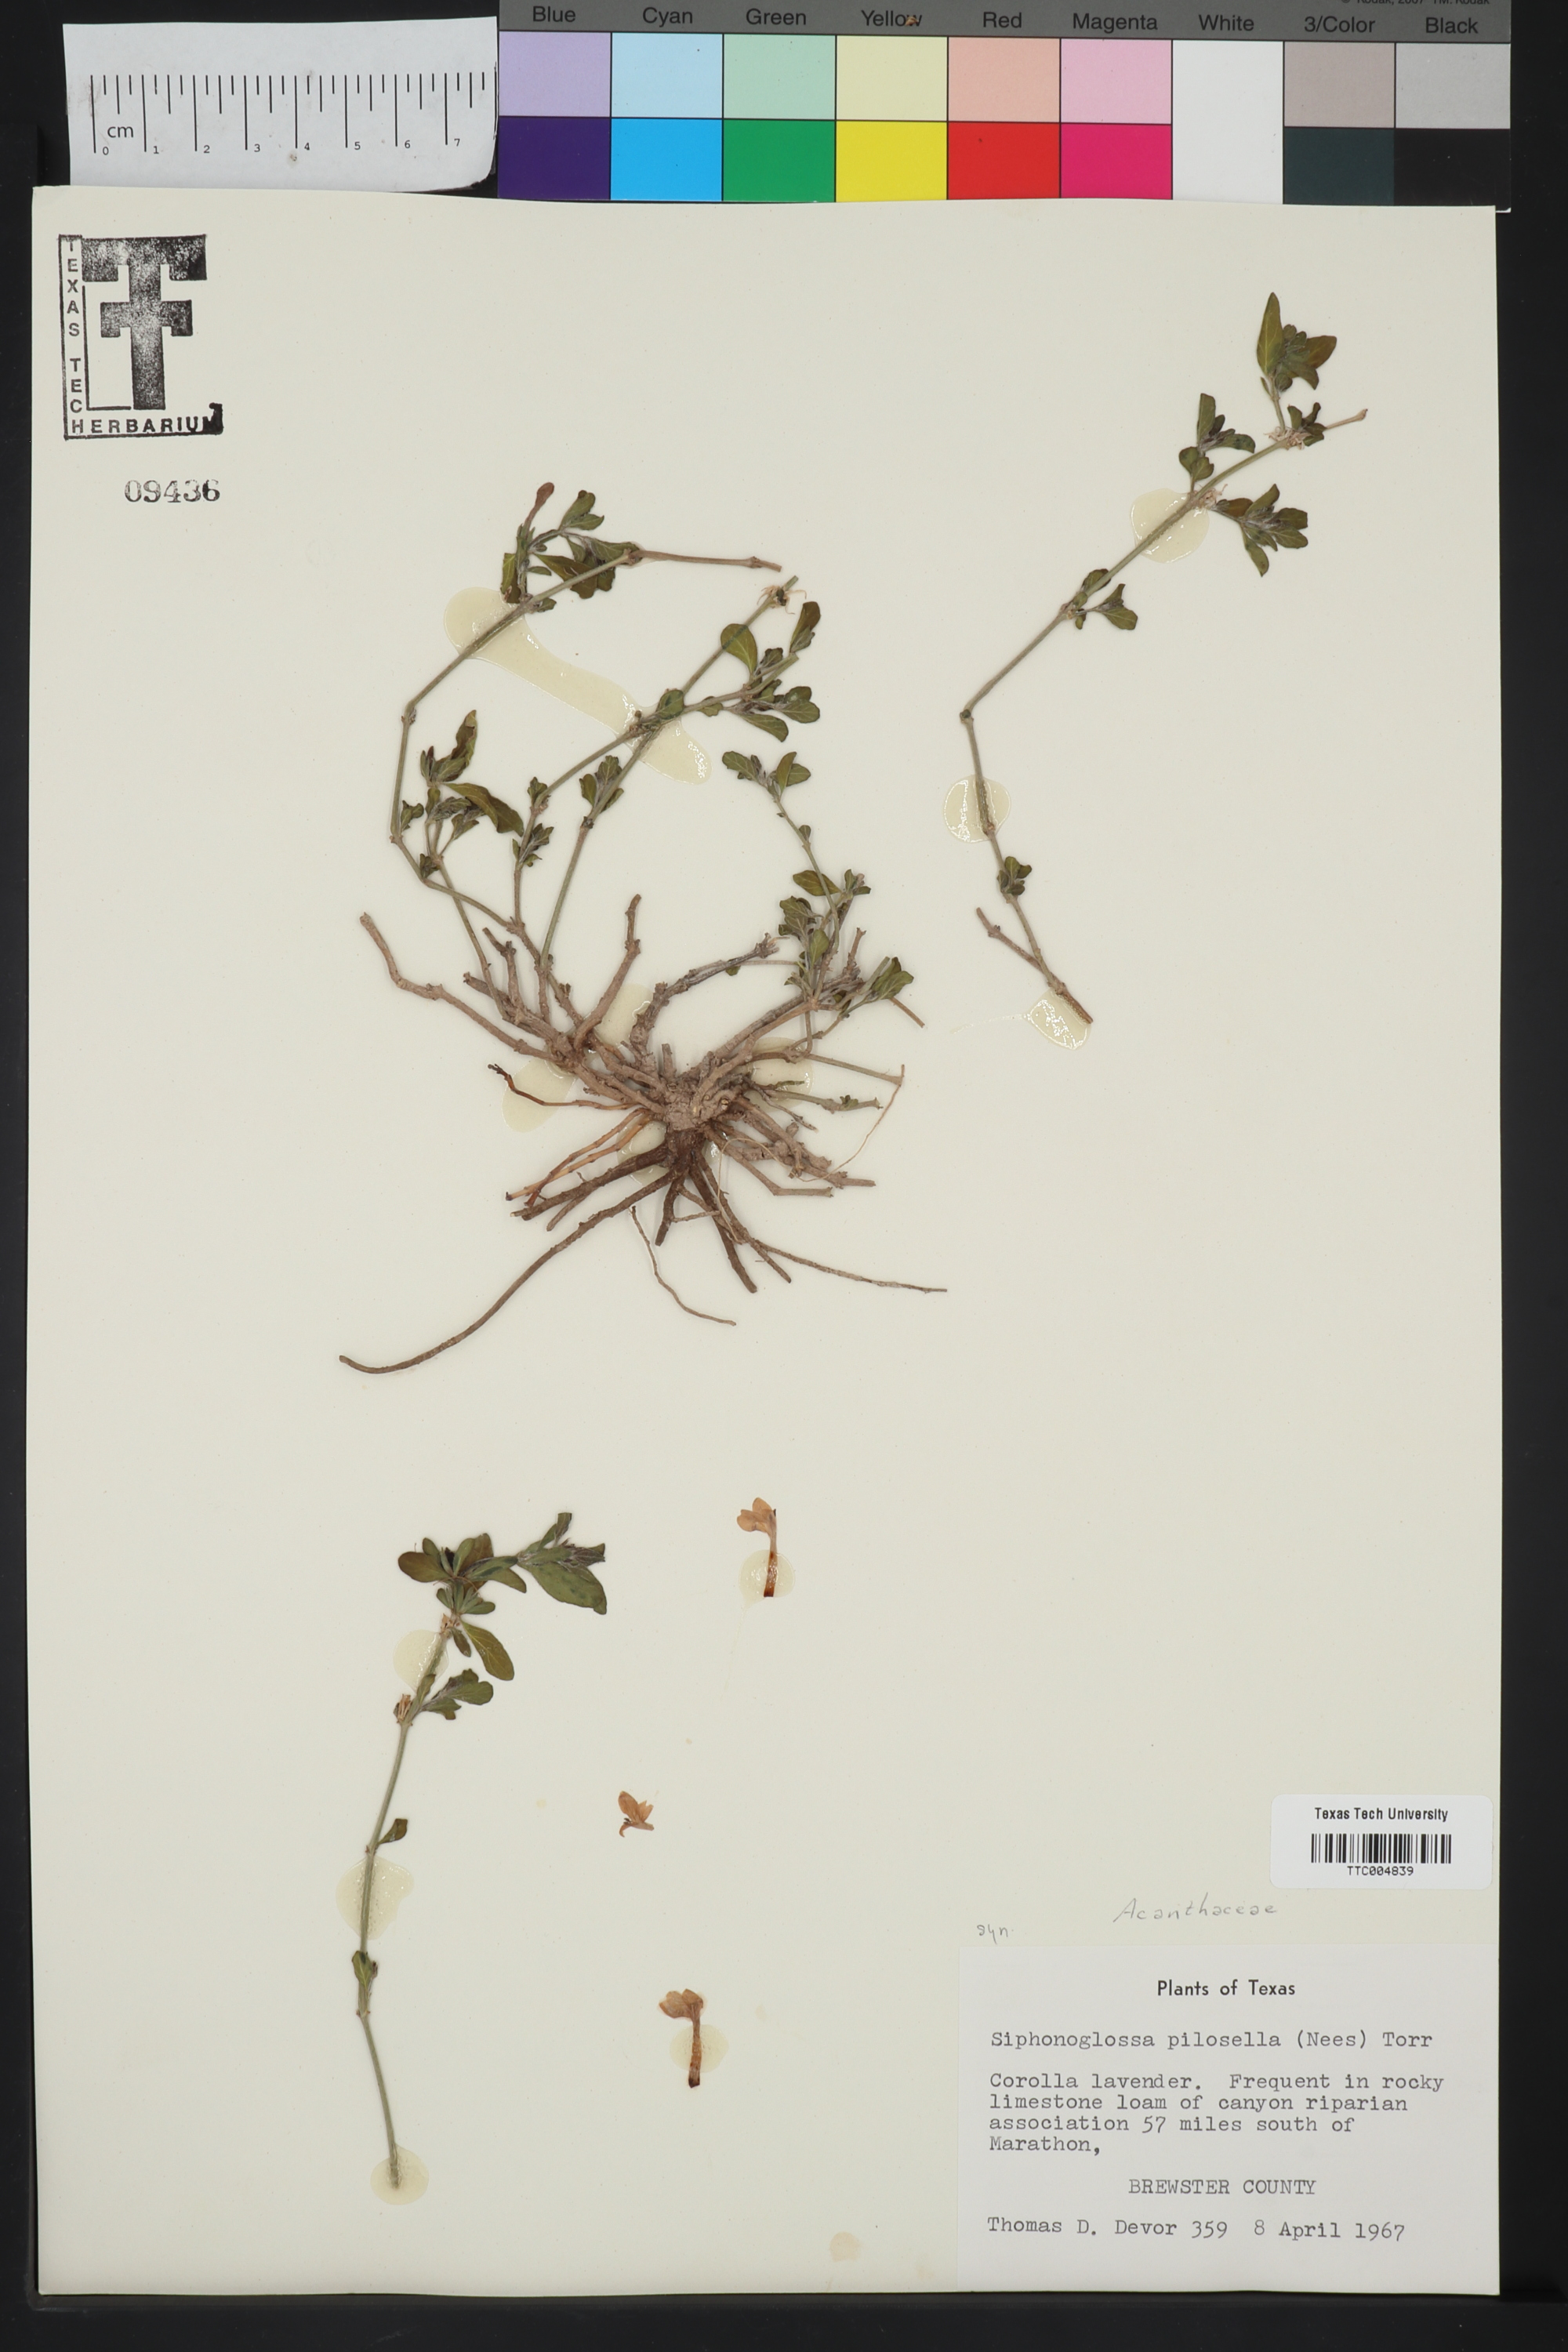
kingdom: Plantae
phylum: Tracheophyta
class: Magnoliopsida
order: Lamiales
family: Acanthaceae
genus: Justicia
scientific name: Justicia pilosella
